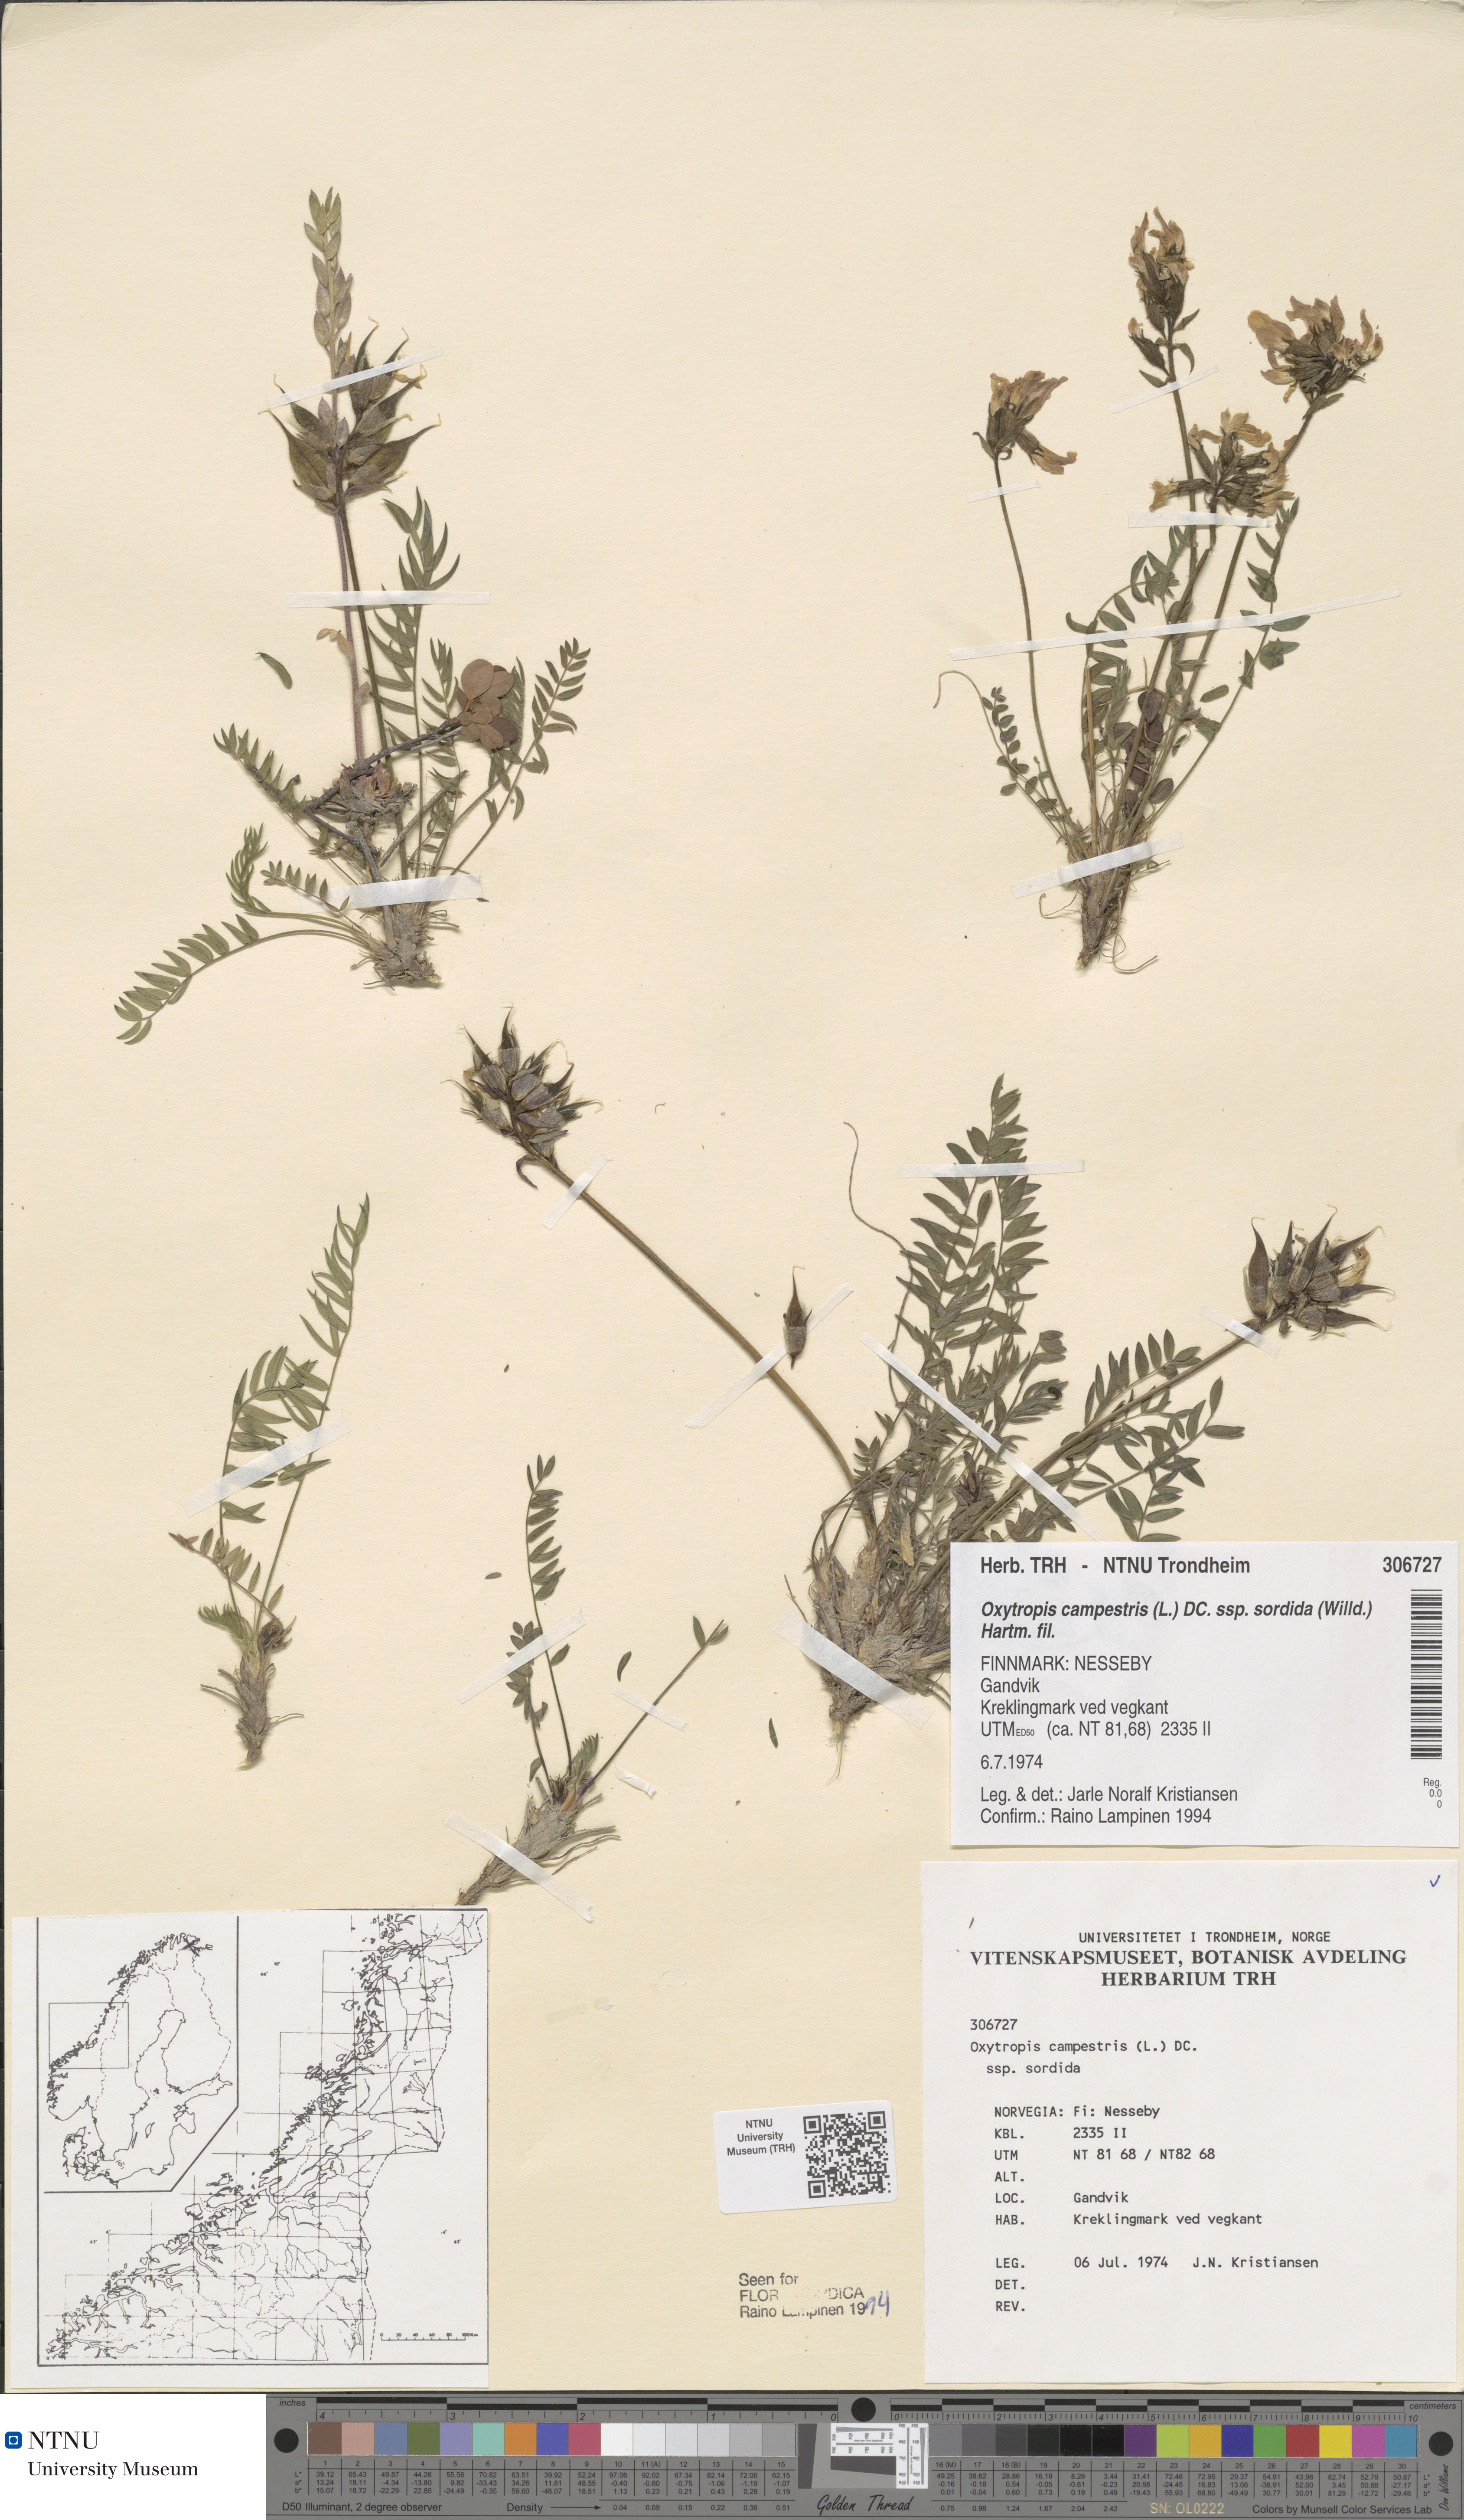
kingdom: Plantae
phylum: Tracheophyta
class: Magnoliopsida
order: Fabales
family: Fabaceae
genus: Oxytropis
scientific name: Oxytropis sordida
